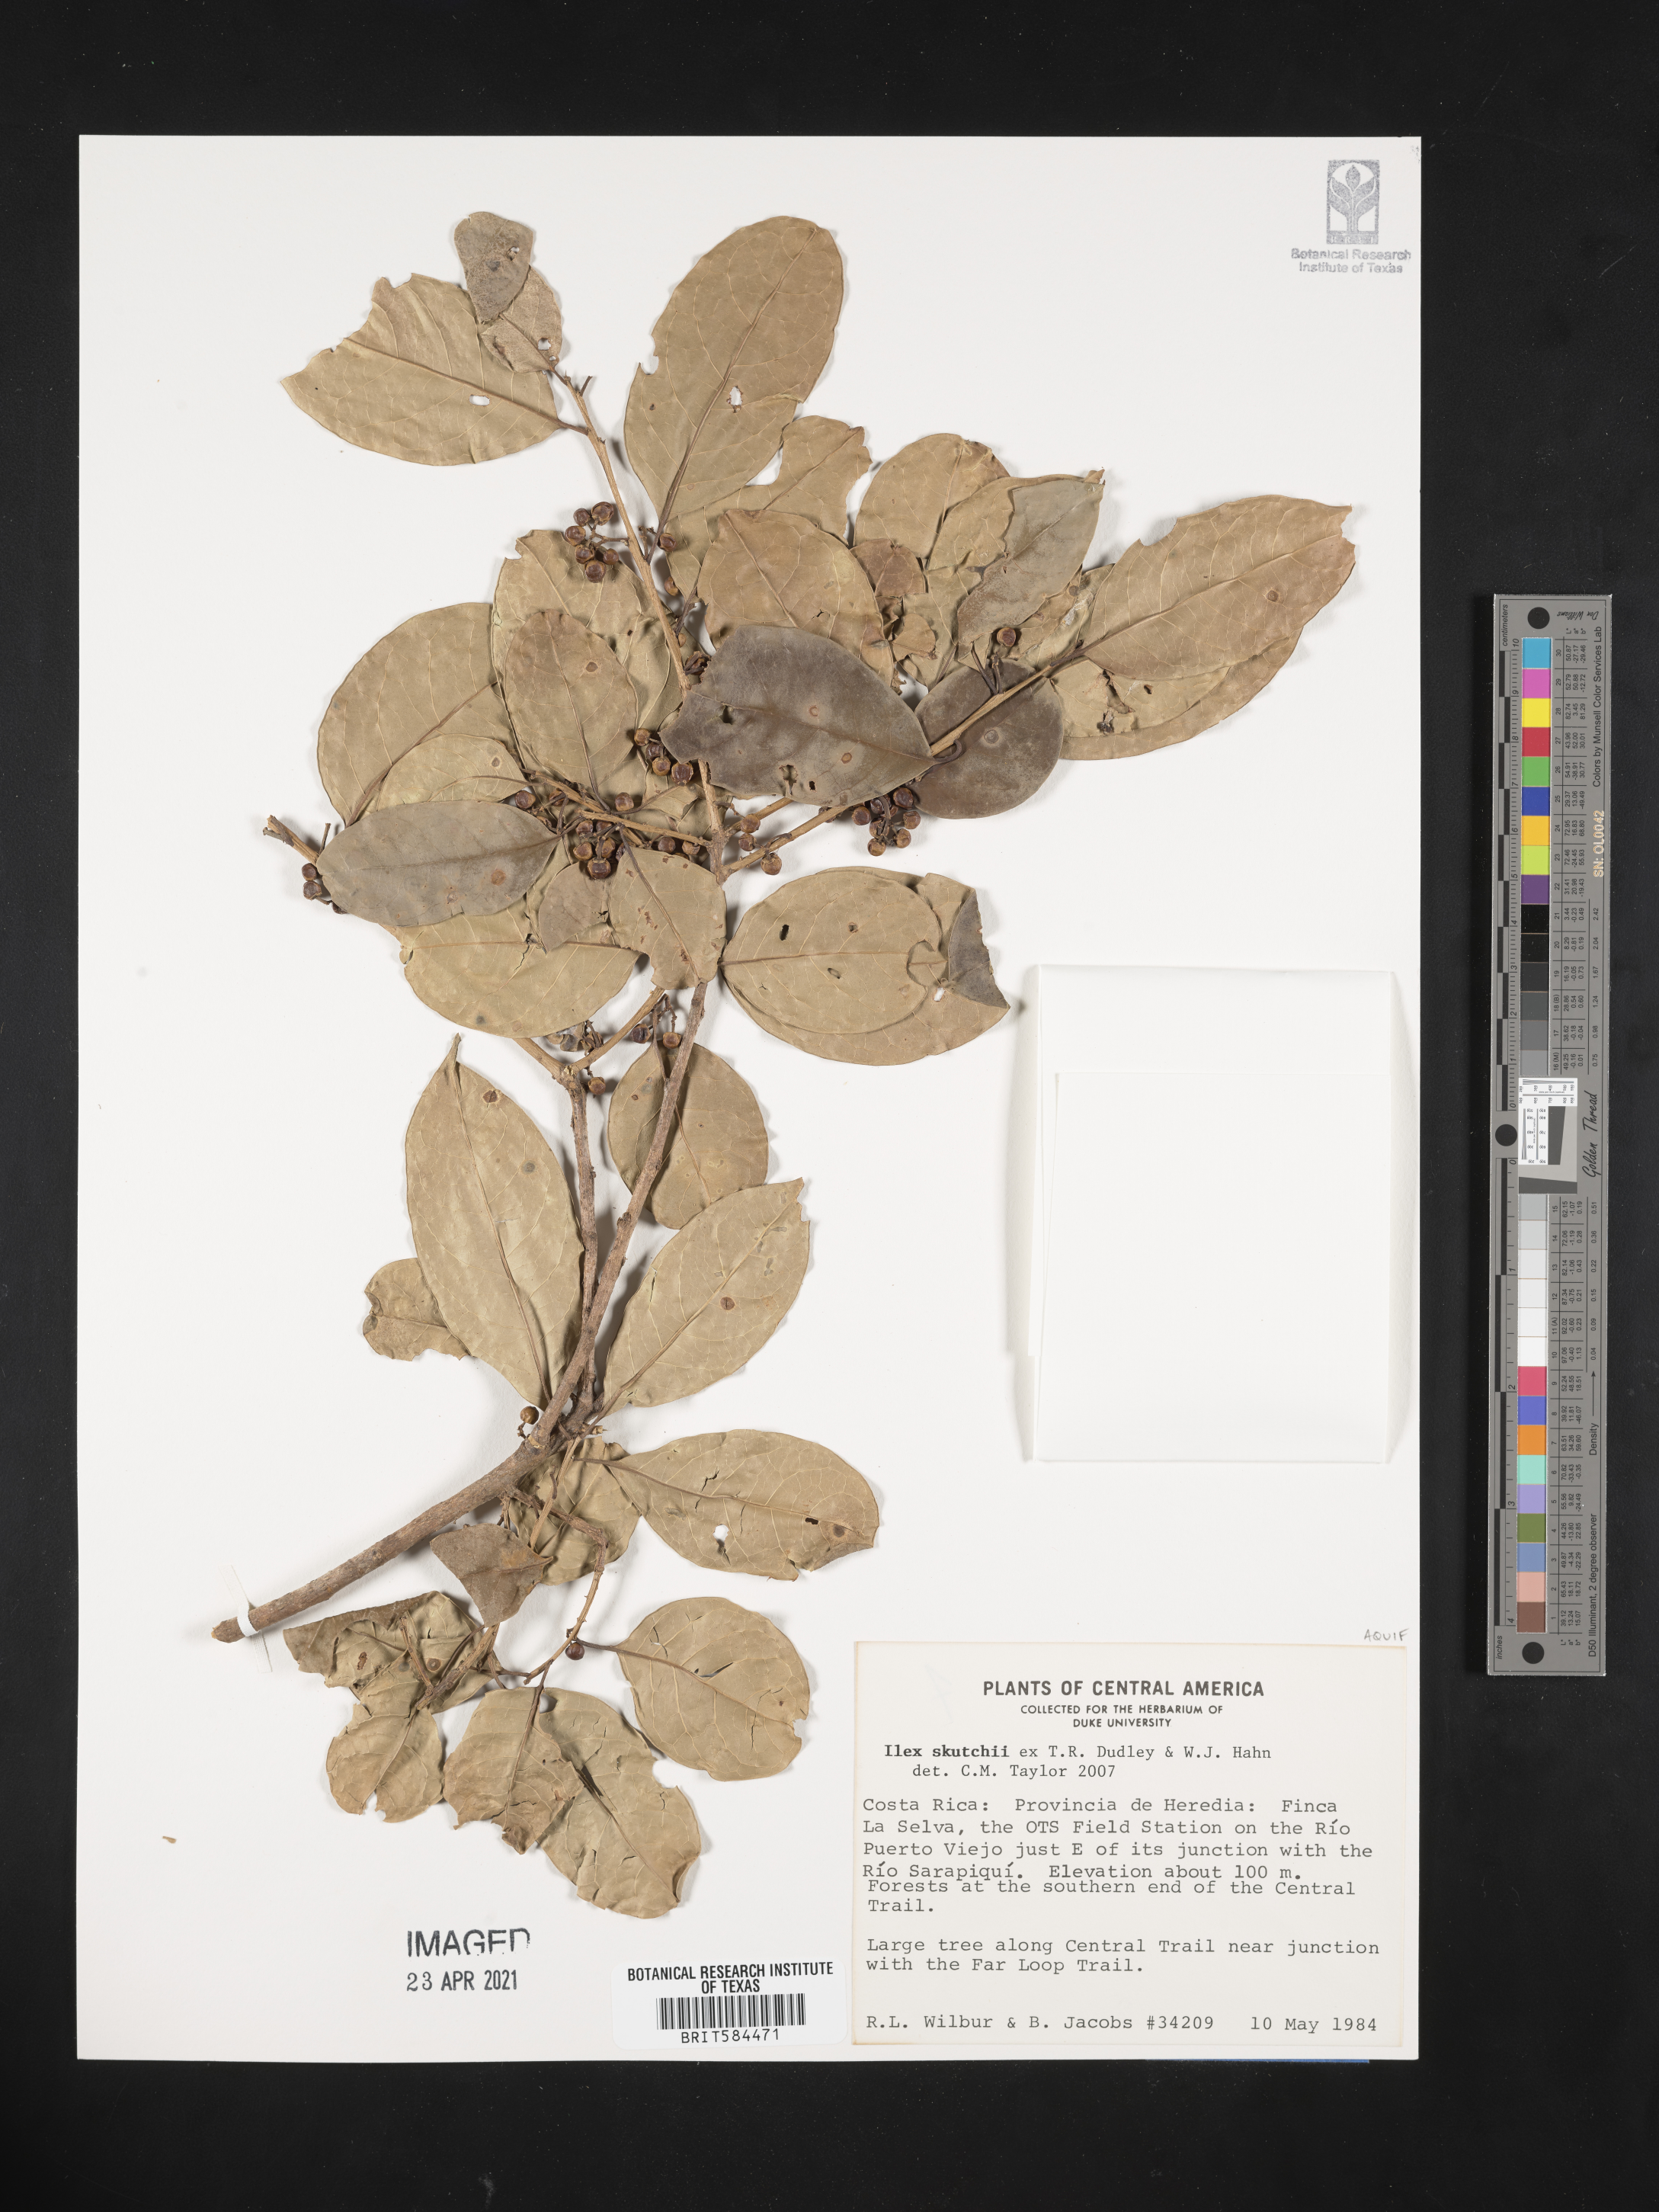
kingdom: Plantae
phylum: Tracheophyta
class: Magnoliopsida
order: Aquifoliales
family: Aquifoliaceae
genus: Ilex
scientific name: Ilex skutchii
